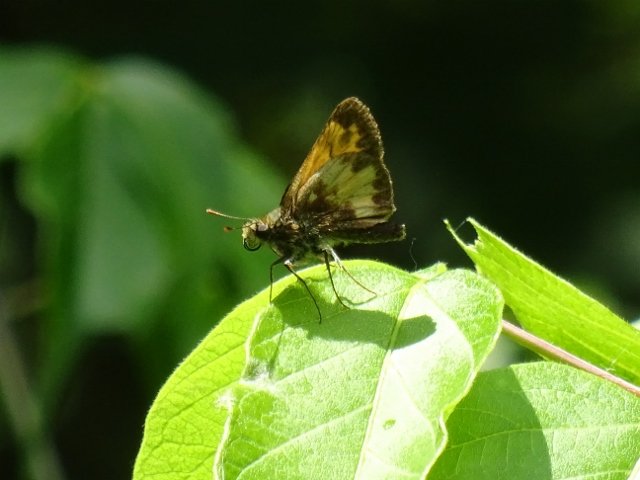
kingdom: Animalia
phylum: Arthropoda
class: Insecta
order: Lepidoptera
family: Hesperiidae
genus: Lon
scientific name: Lon hobomok
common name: Hobomok Skipper
